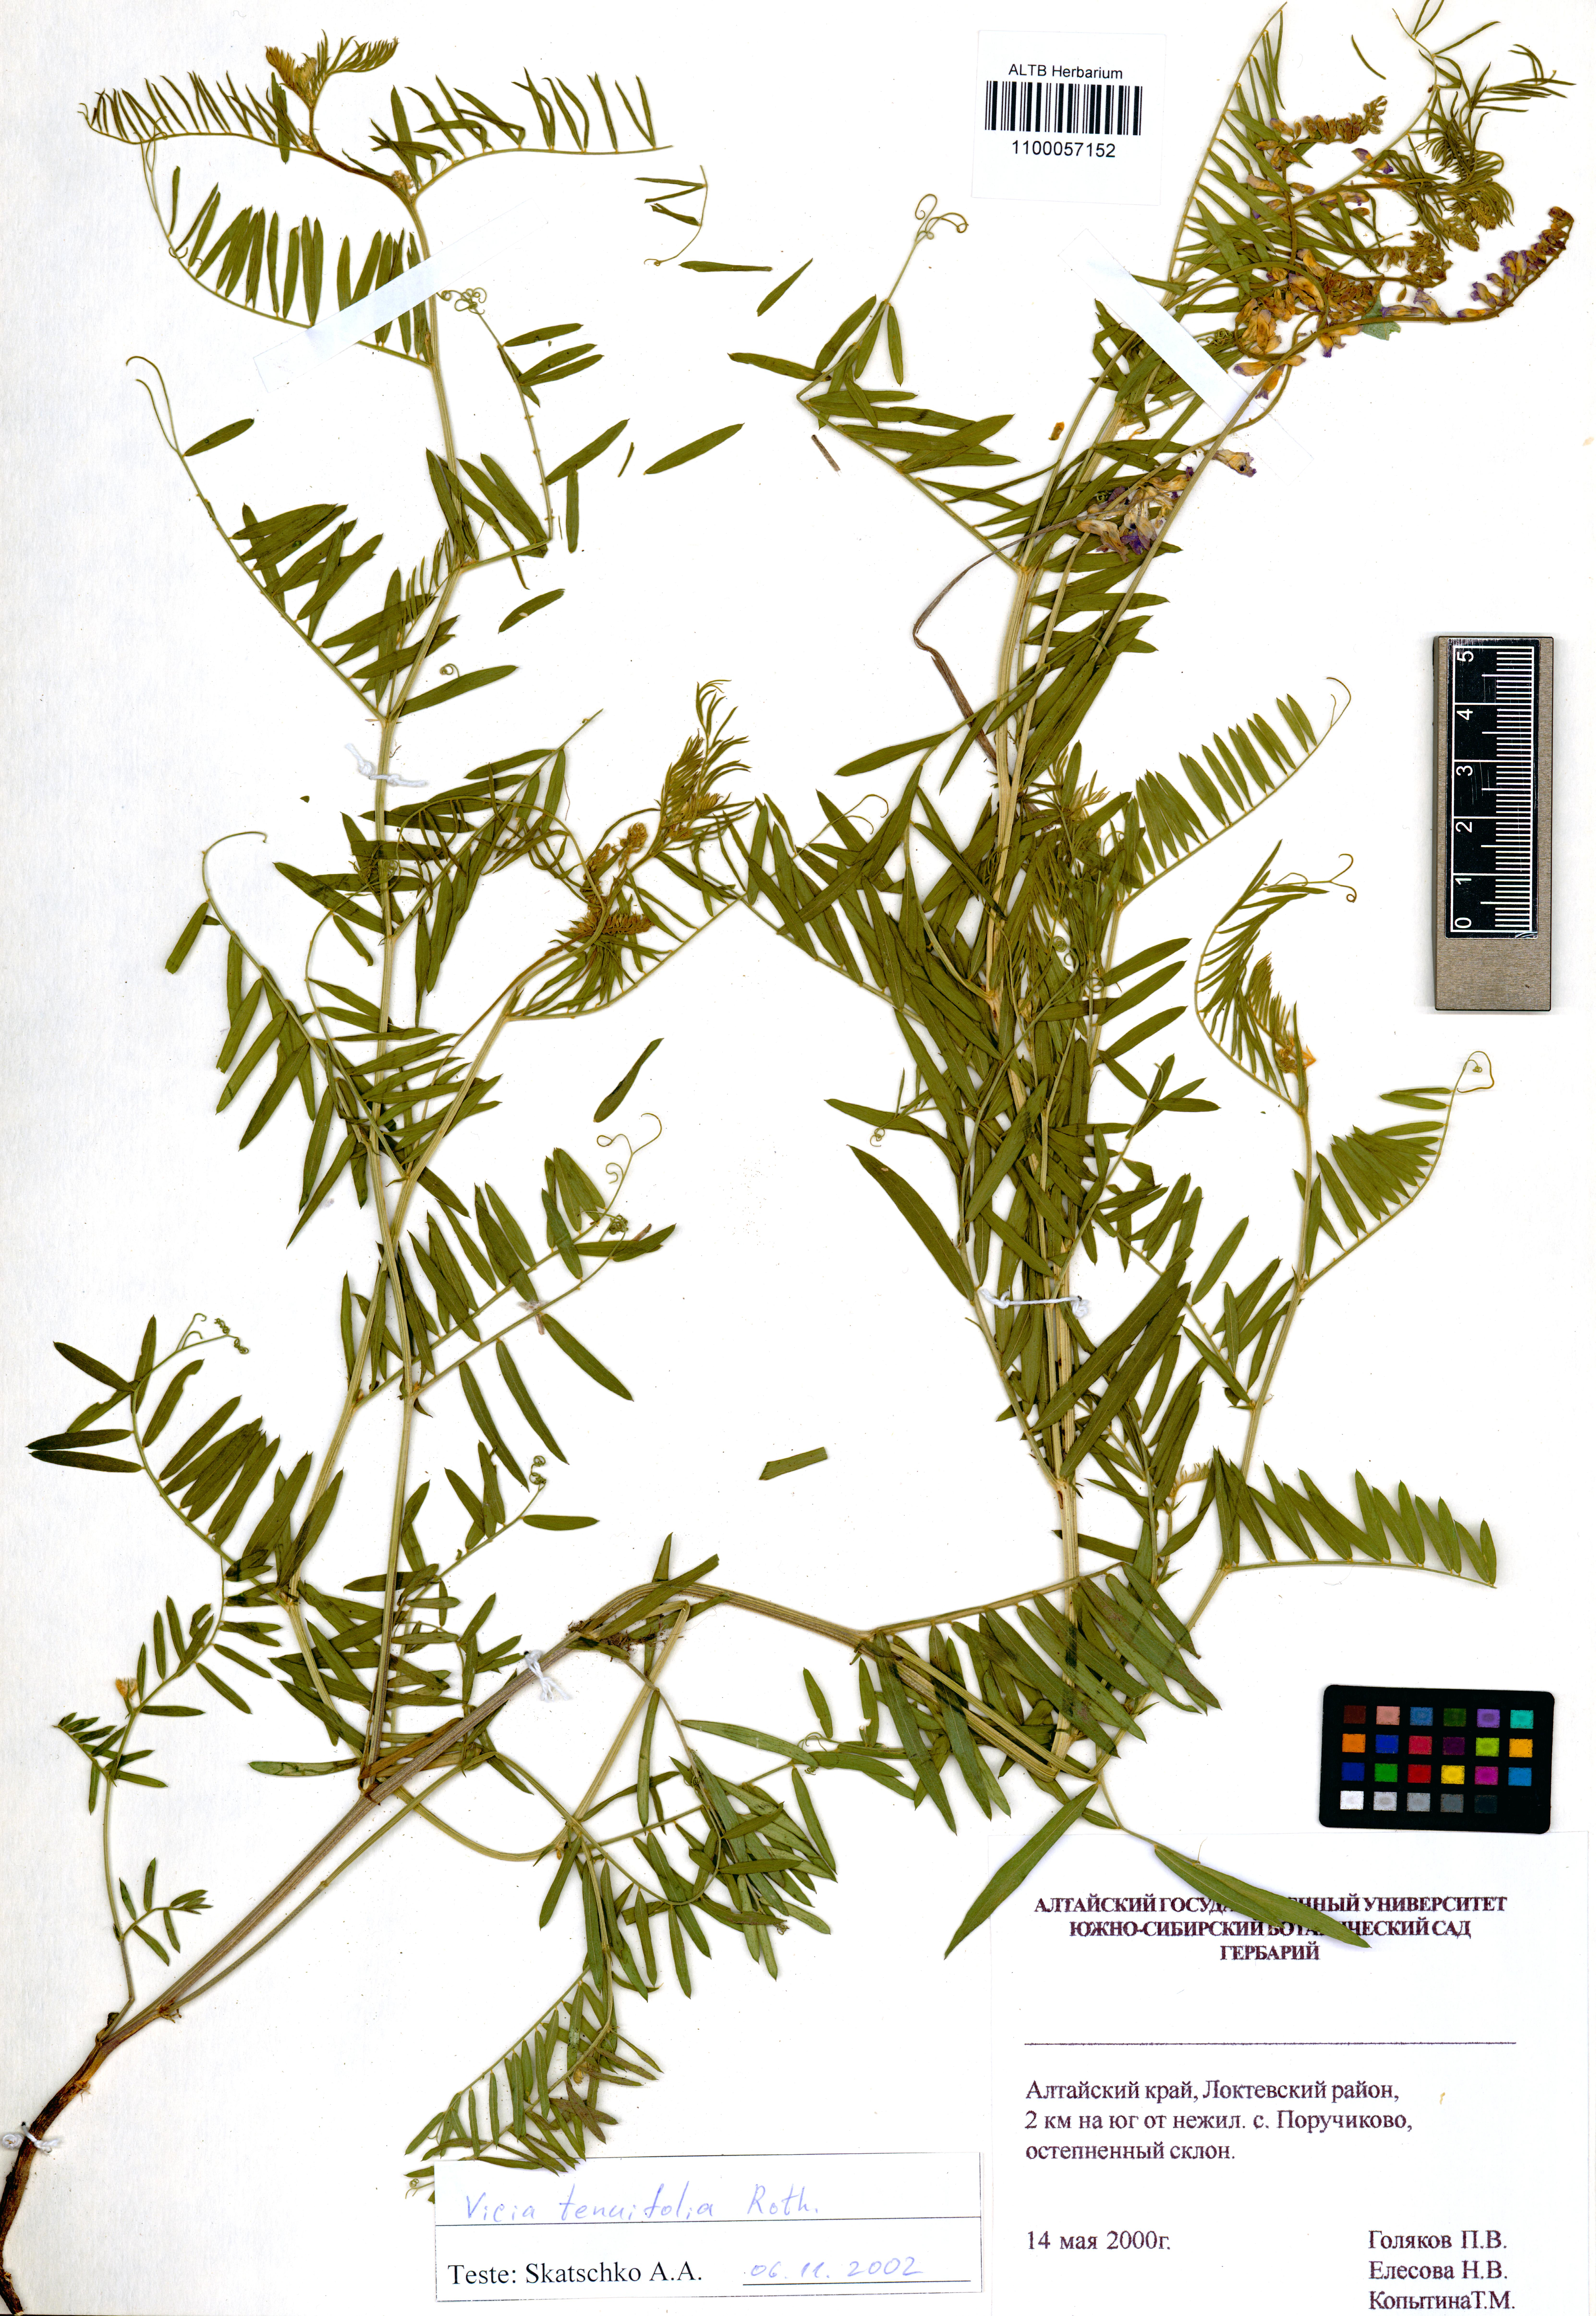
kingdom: Plantae
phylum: Tracheophyta
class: Magnoliopsida
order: Fabales
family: Fabaceae
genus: Vicia
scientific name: Vicia tenuifolia
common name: Fine-leaved vetch
